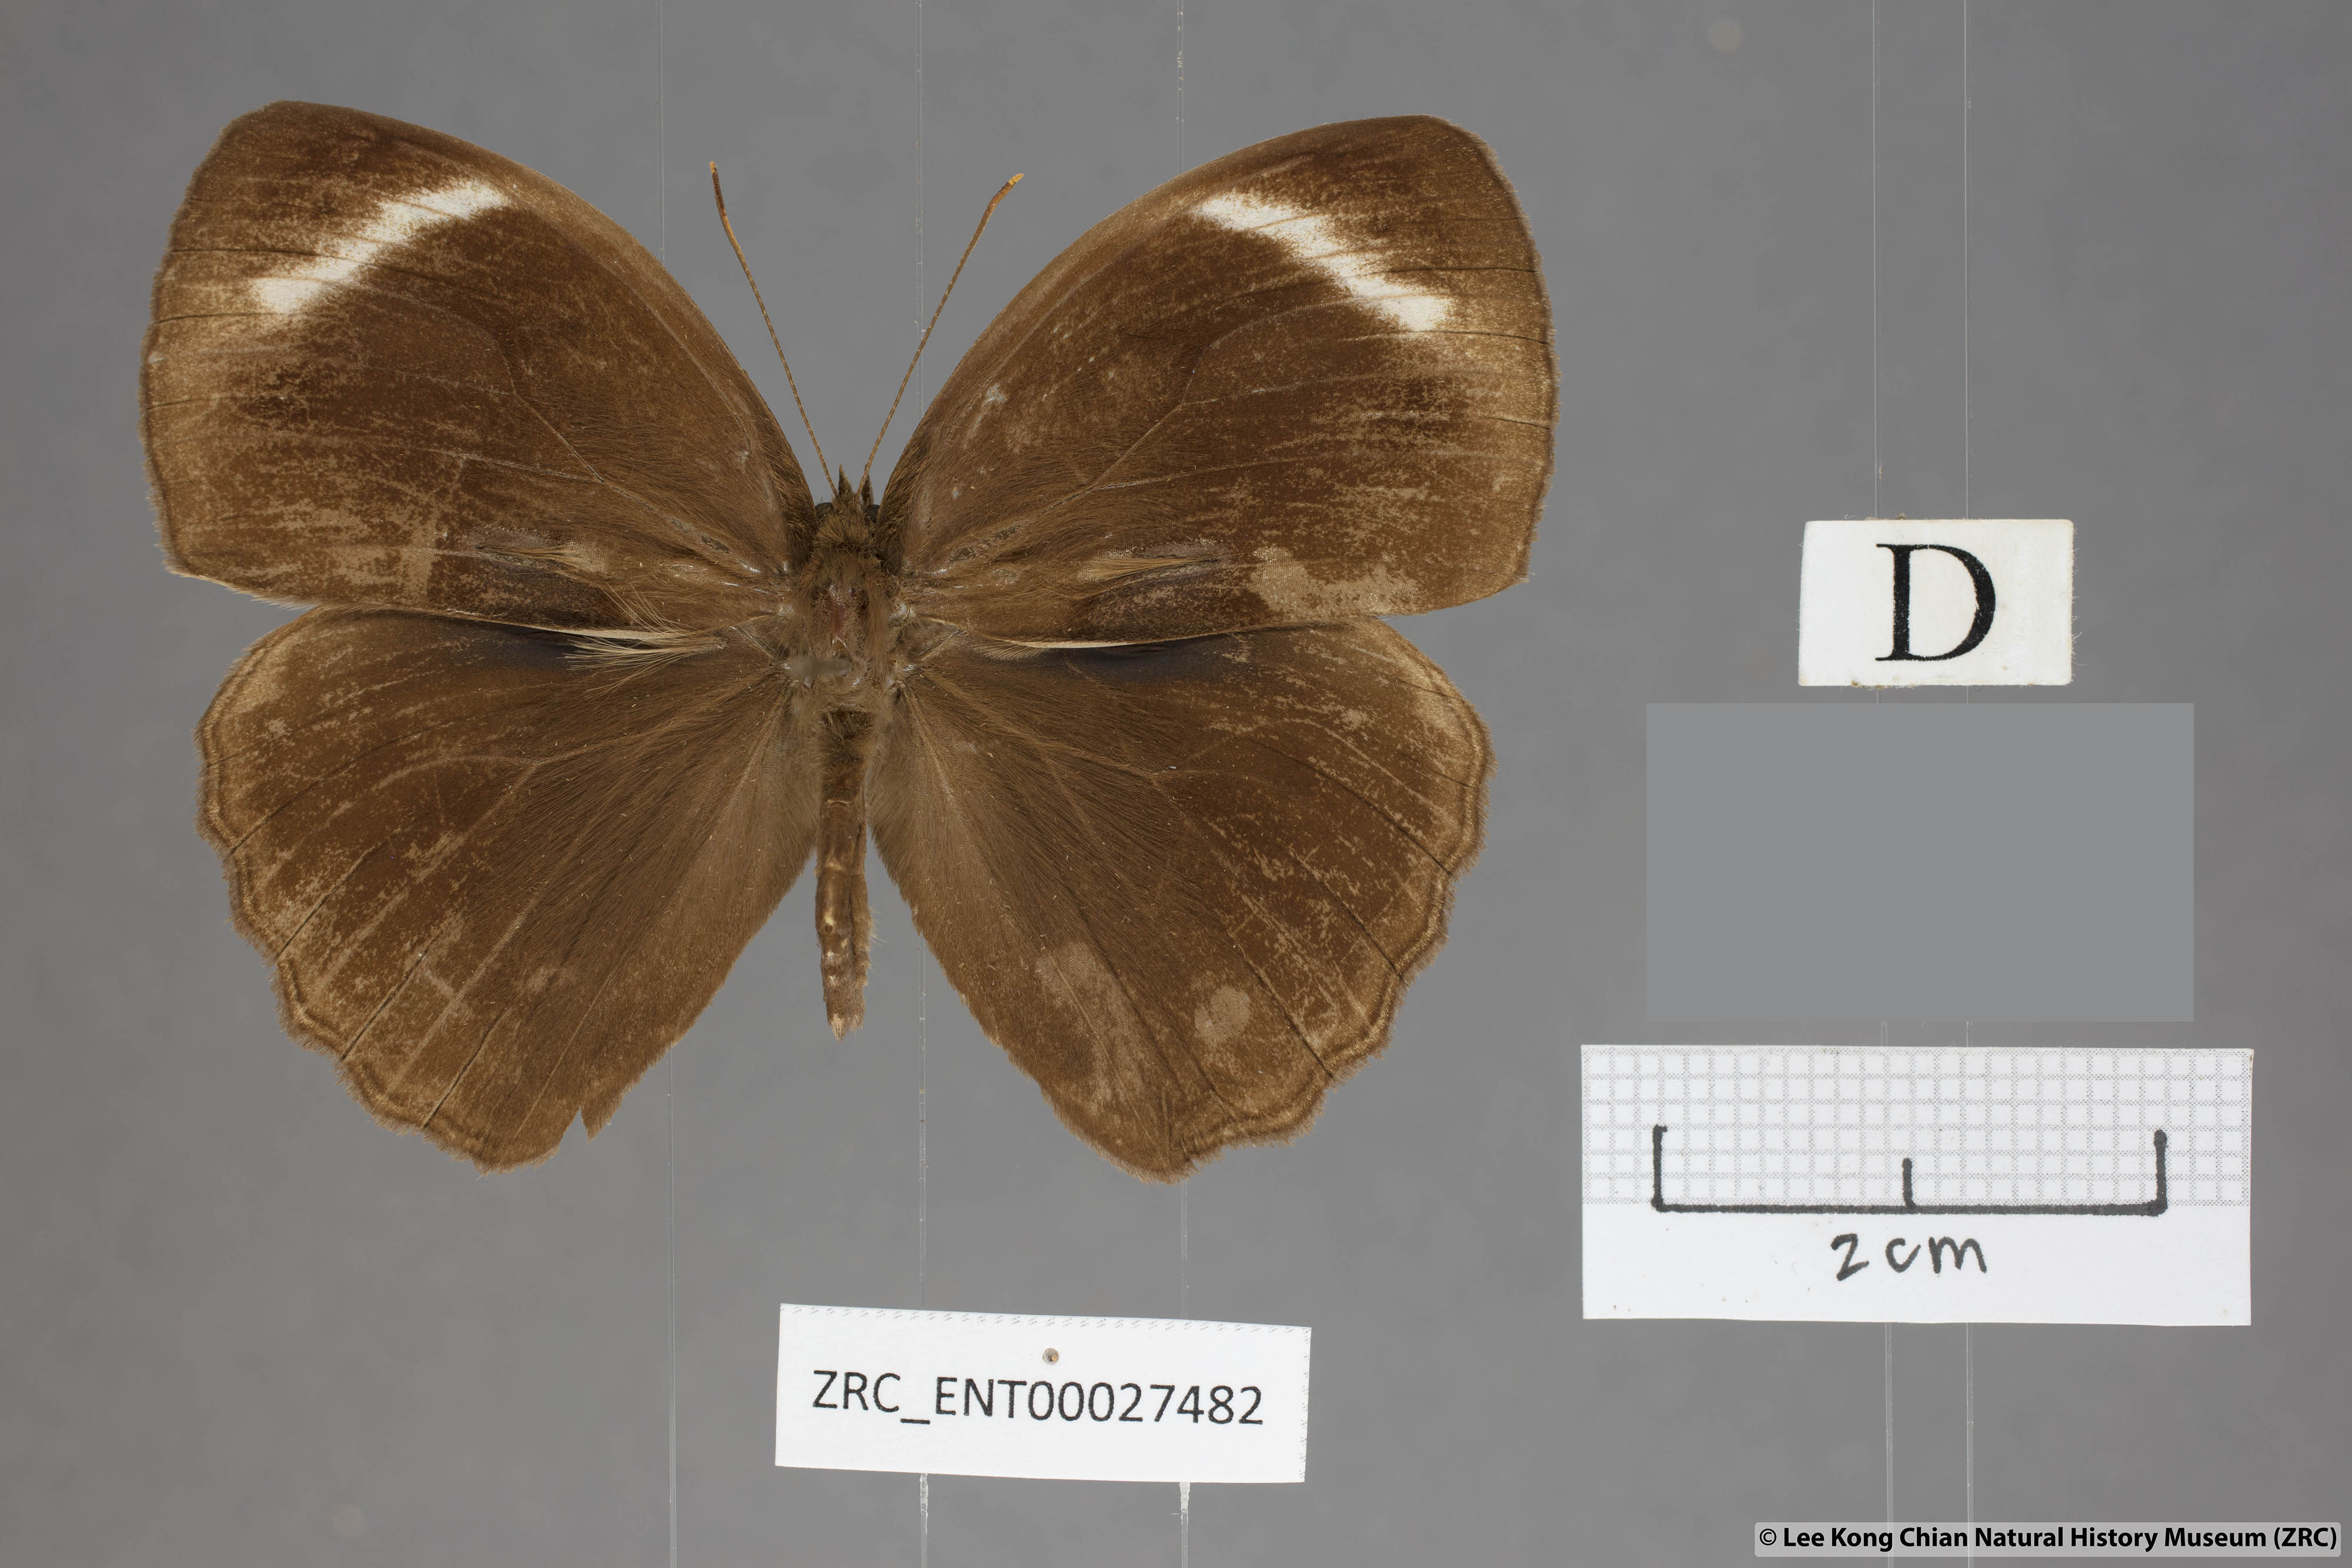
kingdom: Animalia
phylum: Arthropoda
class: Insecta
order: Lepidoptera
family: Nymphalidae
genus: Mycalesis
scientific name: Mycalesis anaxioides
